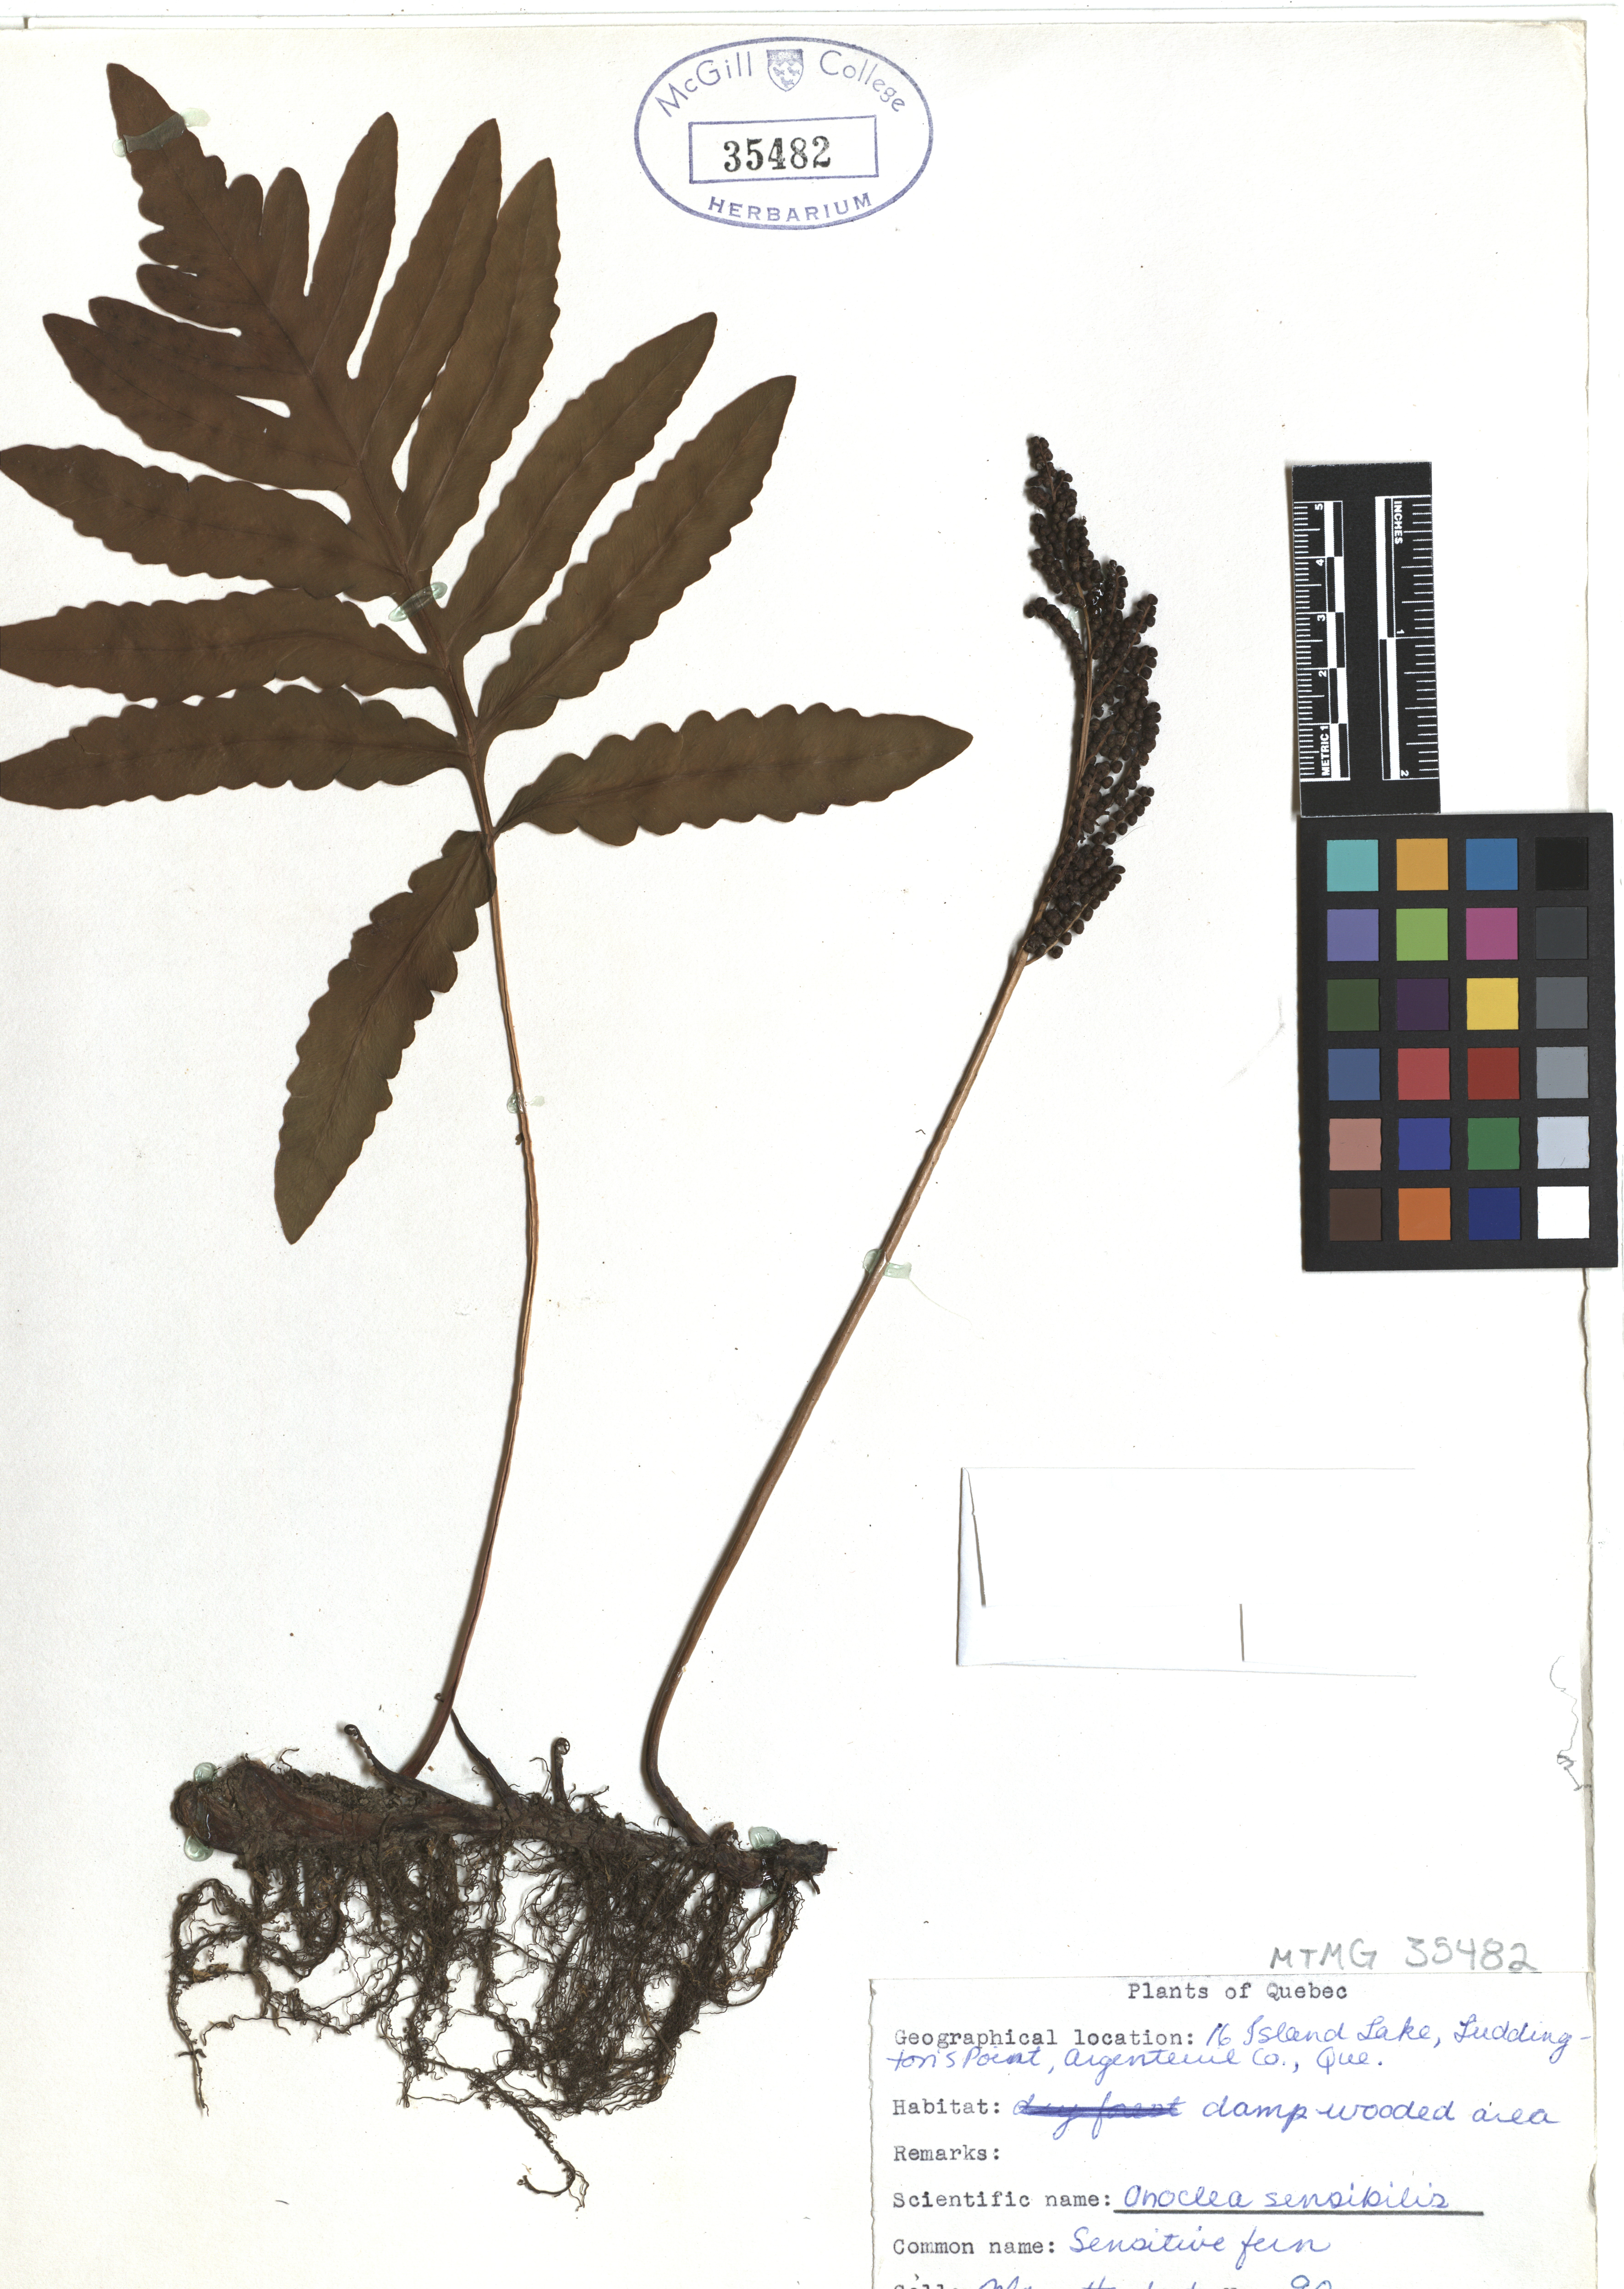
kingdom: Plantae
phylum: Tracheophyta
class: Polypodiopsida
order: Osmundales
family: Osmundaceae
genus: Osmunda
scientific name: Osmunda regalis
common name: Royal fern
